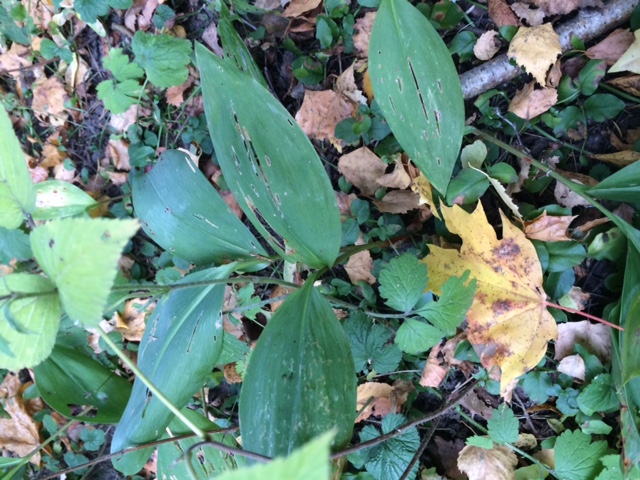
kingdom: Plantae
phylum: Tracheophyta
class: Liliopsida
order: Asparagales
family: Asparagaceae
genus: Convallaria
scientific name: Convallaria majalis
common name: Lily-of-the-valley
